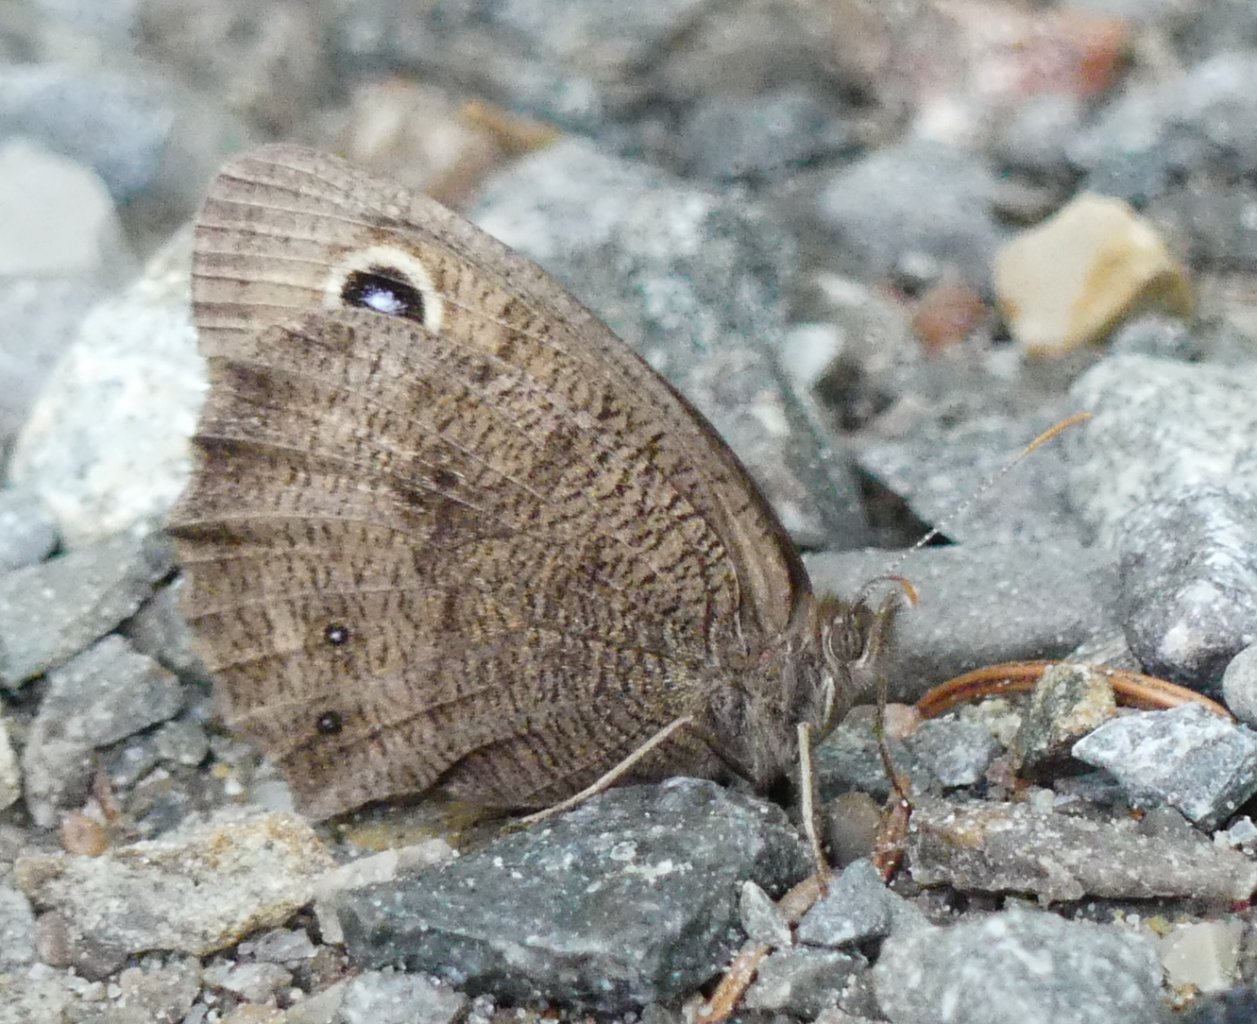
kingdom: Animalia
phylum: Arthropoda
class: Insecta
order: Lepidoptera
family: Nymphalidae
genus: Cercyonis
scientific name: Cercyonis pegala
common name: Common Wood-Nymph
